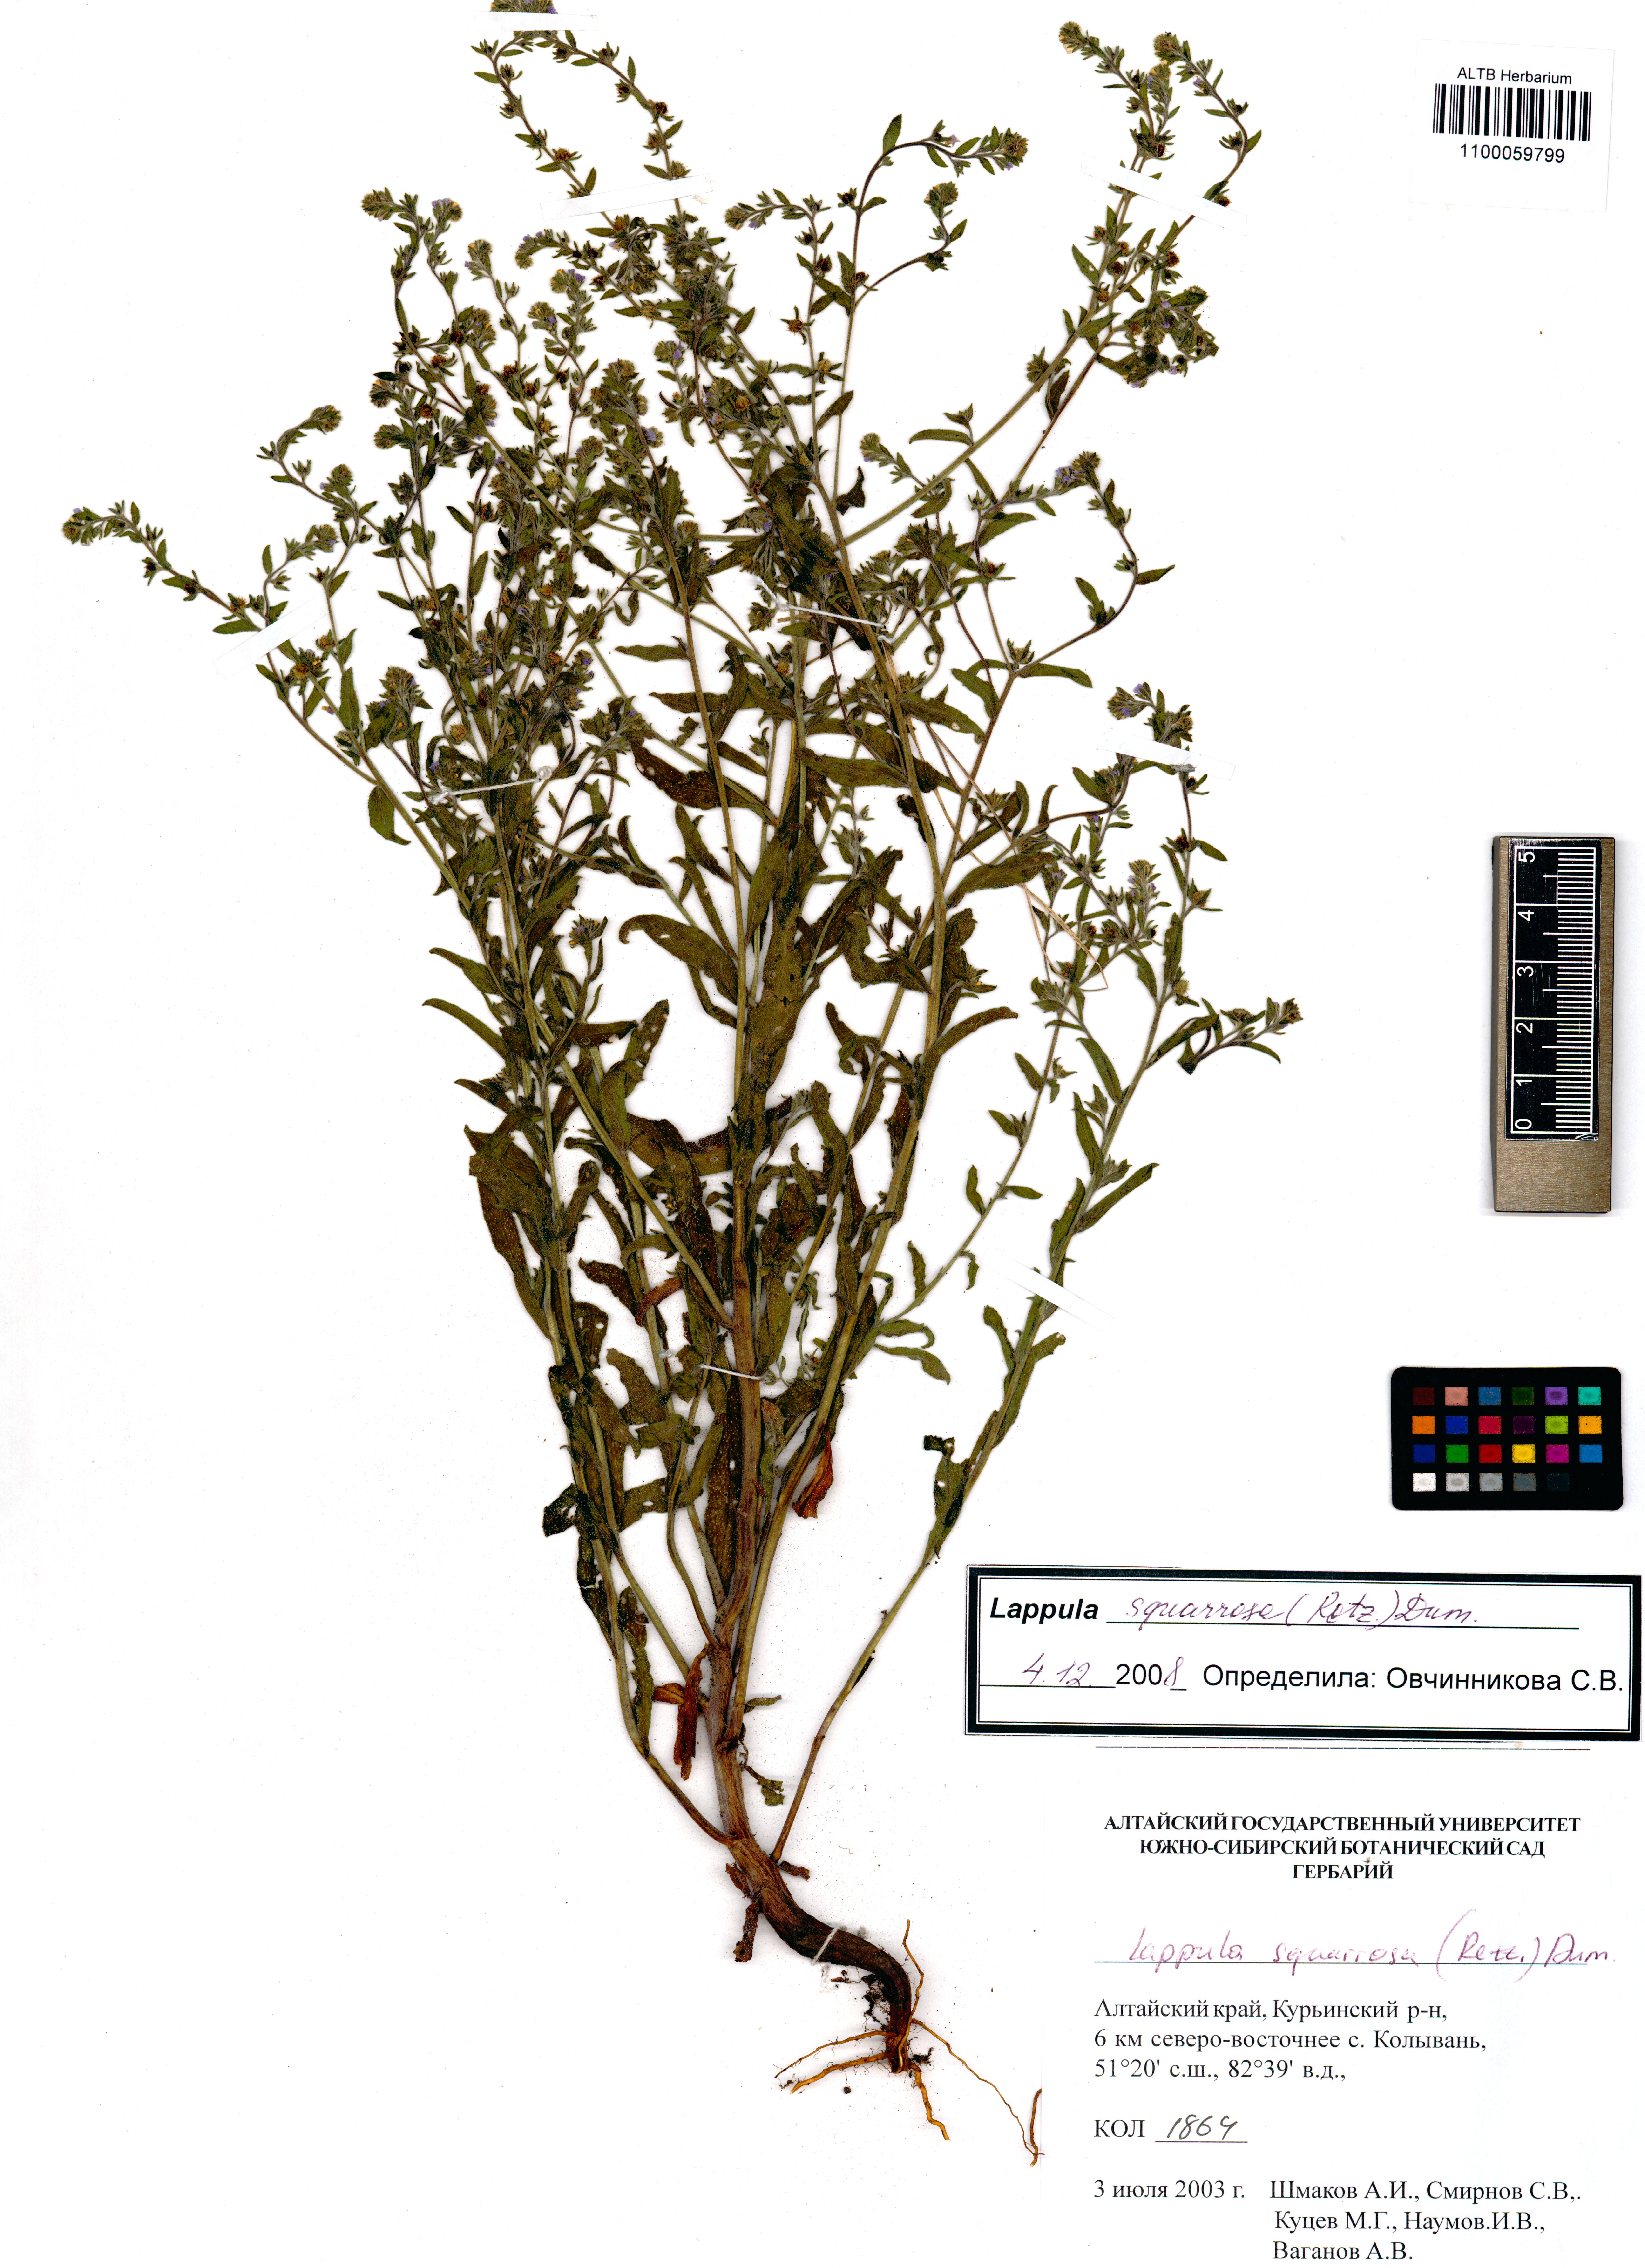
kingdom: Plantae
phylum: Tracheophyta
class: Magnoliopsida
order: Boraginales
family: Boraginaceae
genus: Lappula
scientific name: Lappula squarrosa
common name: European stickseed
